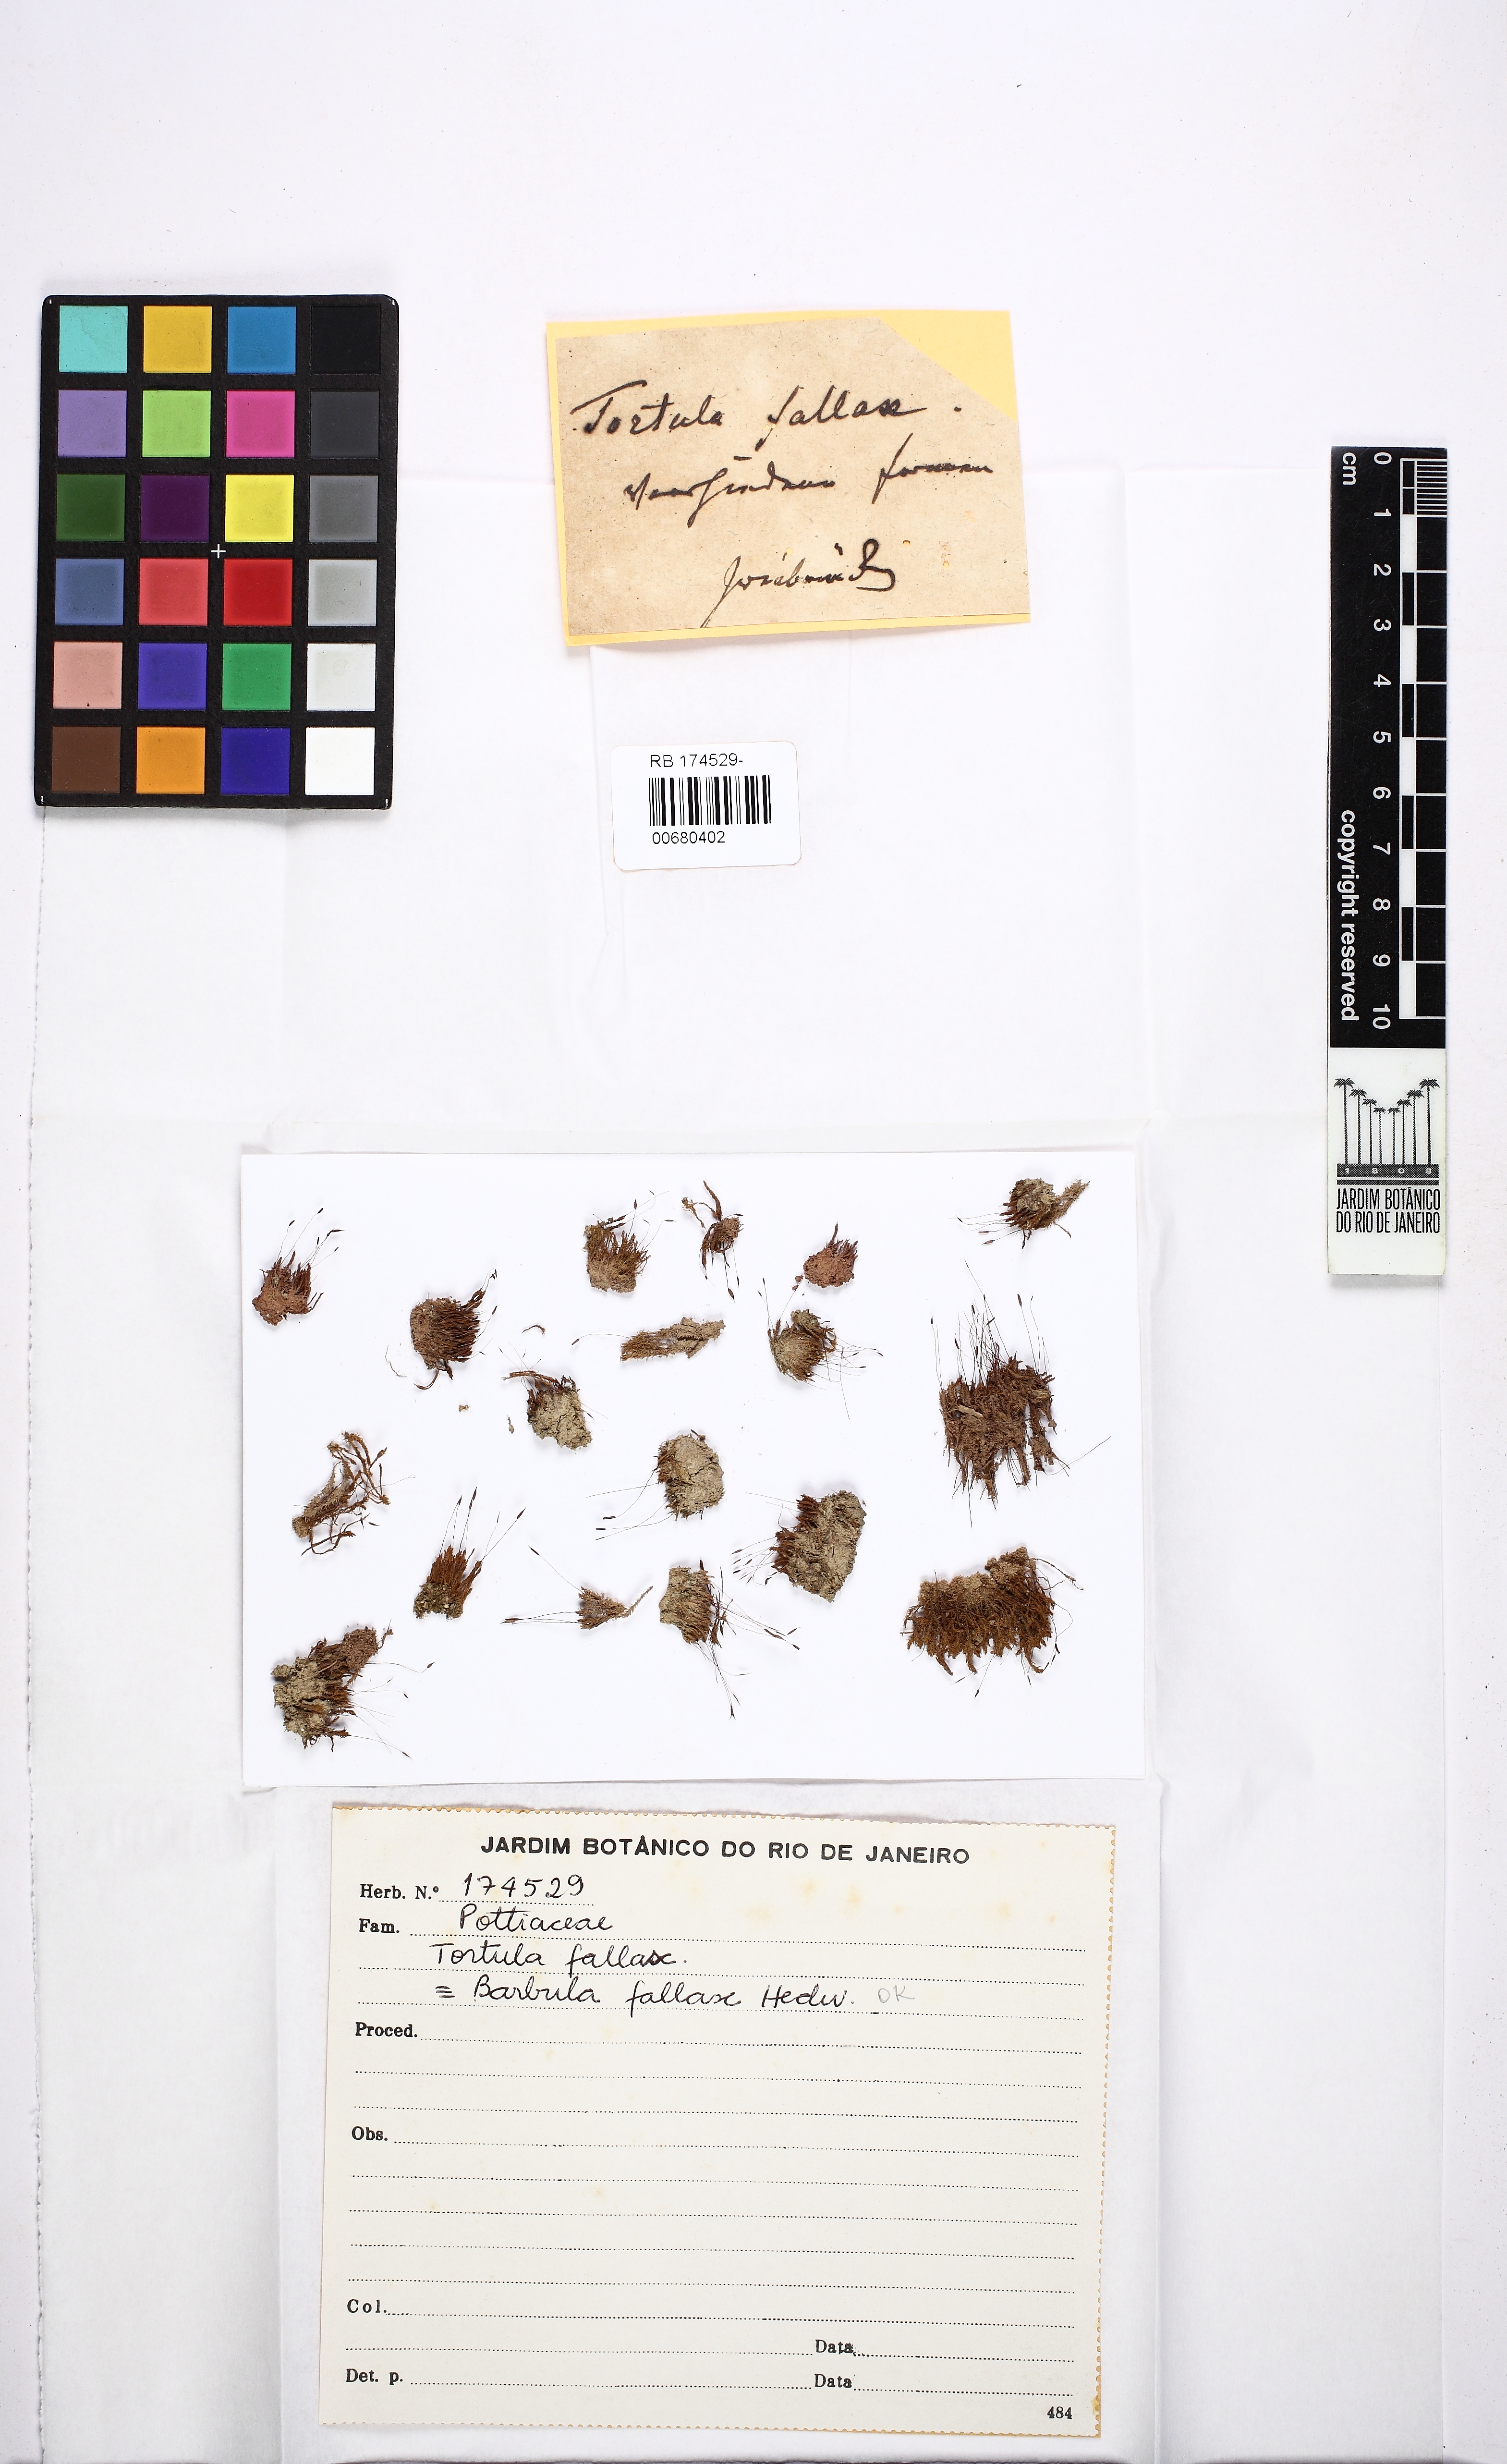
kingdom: Plantae
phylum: Bryophyta
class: Bryopsida
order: Pottiales
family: Pottiaceae
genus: Geheebia
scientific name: Geheebia fallax
